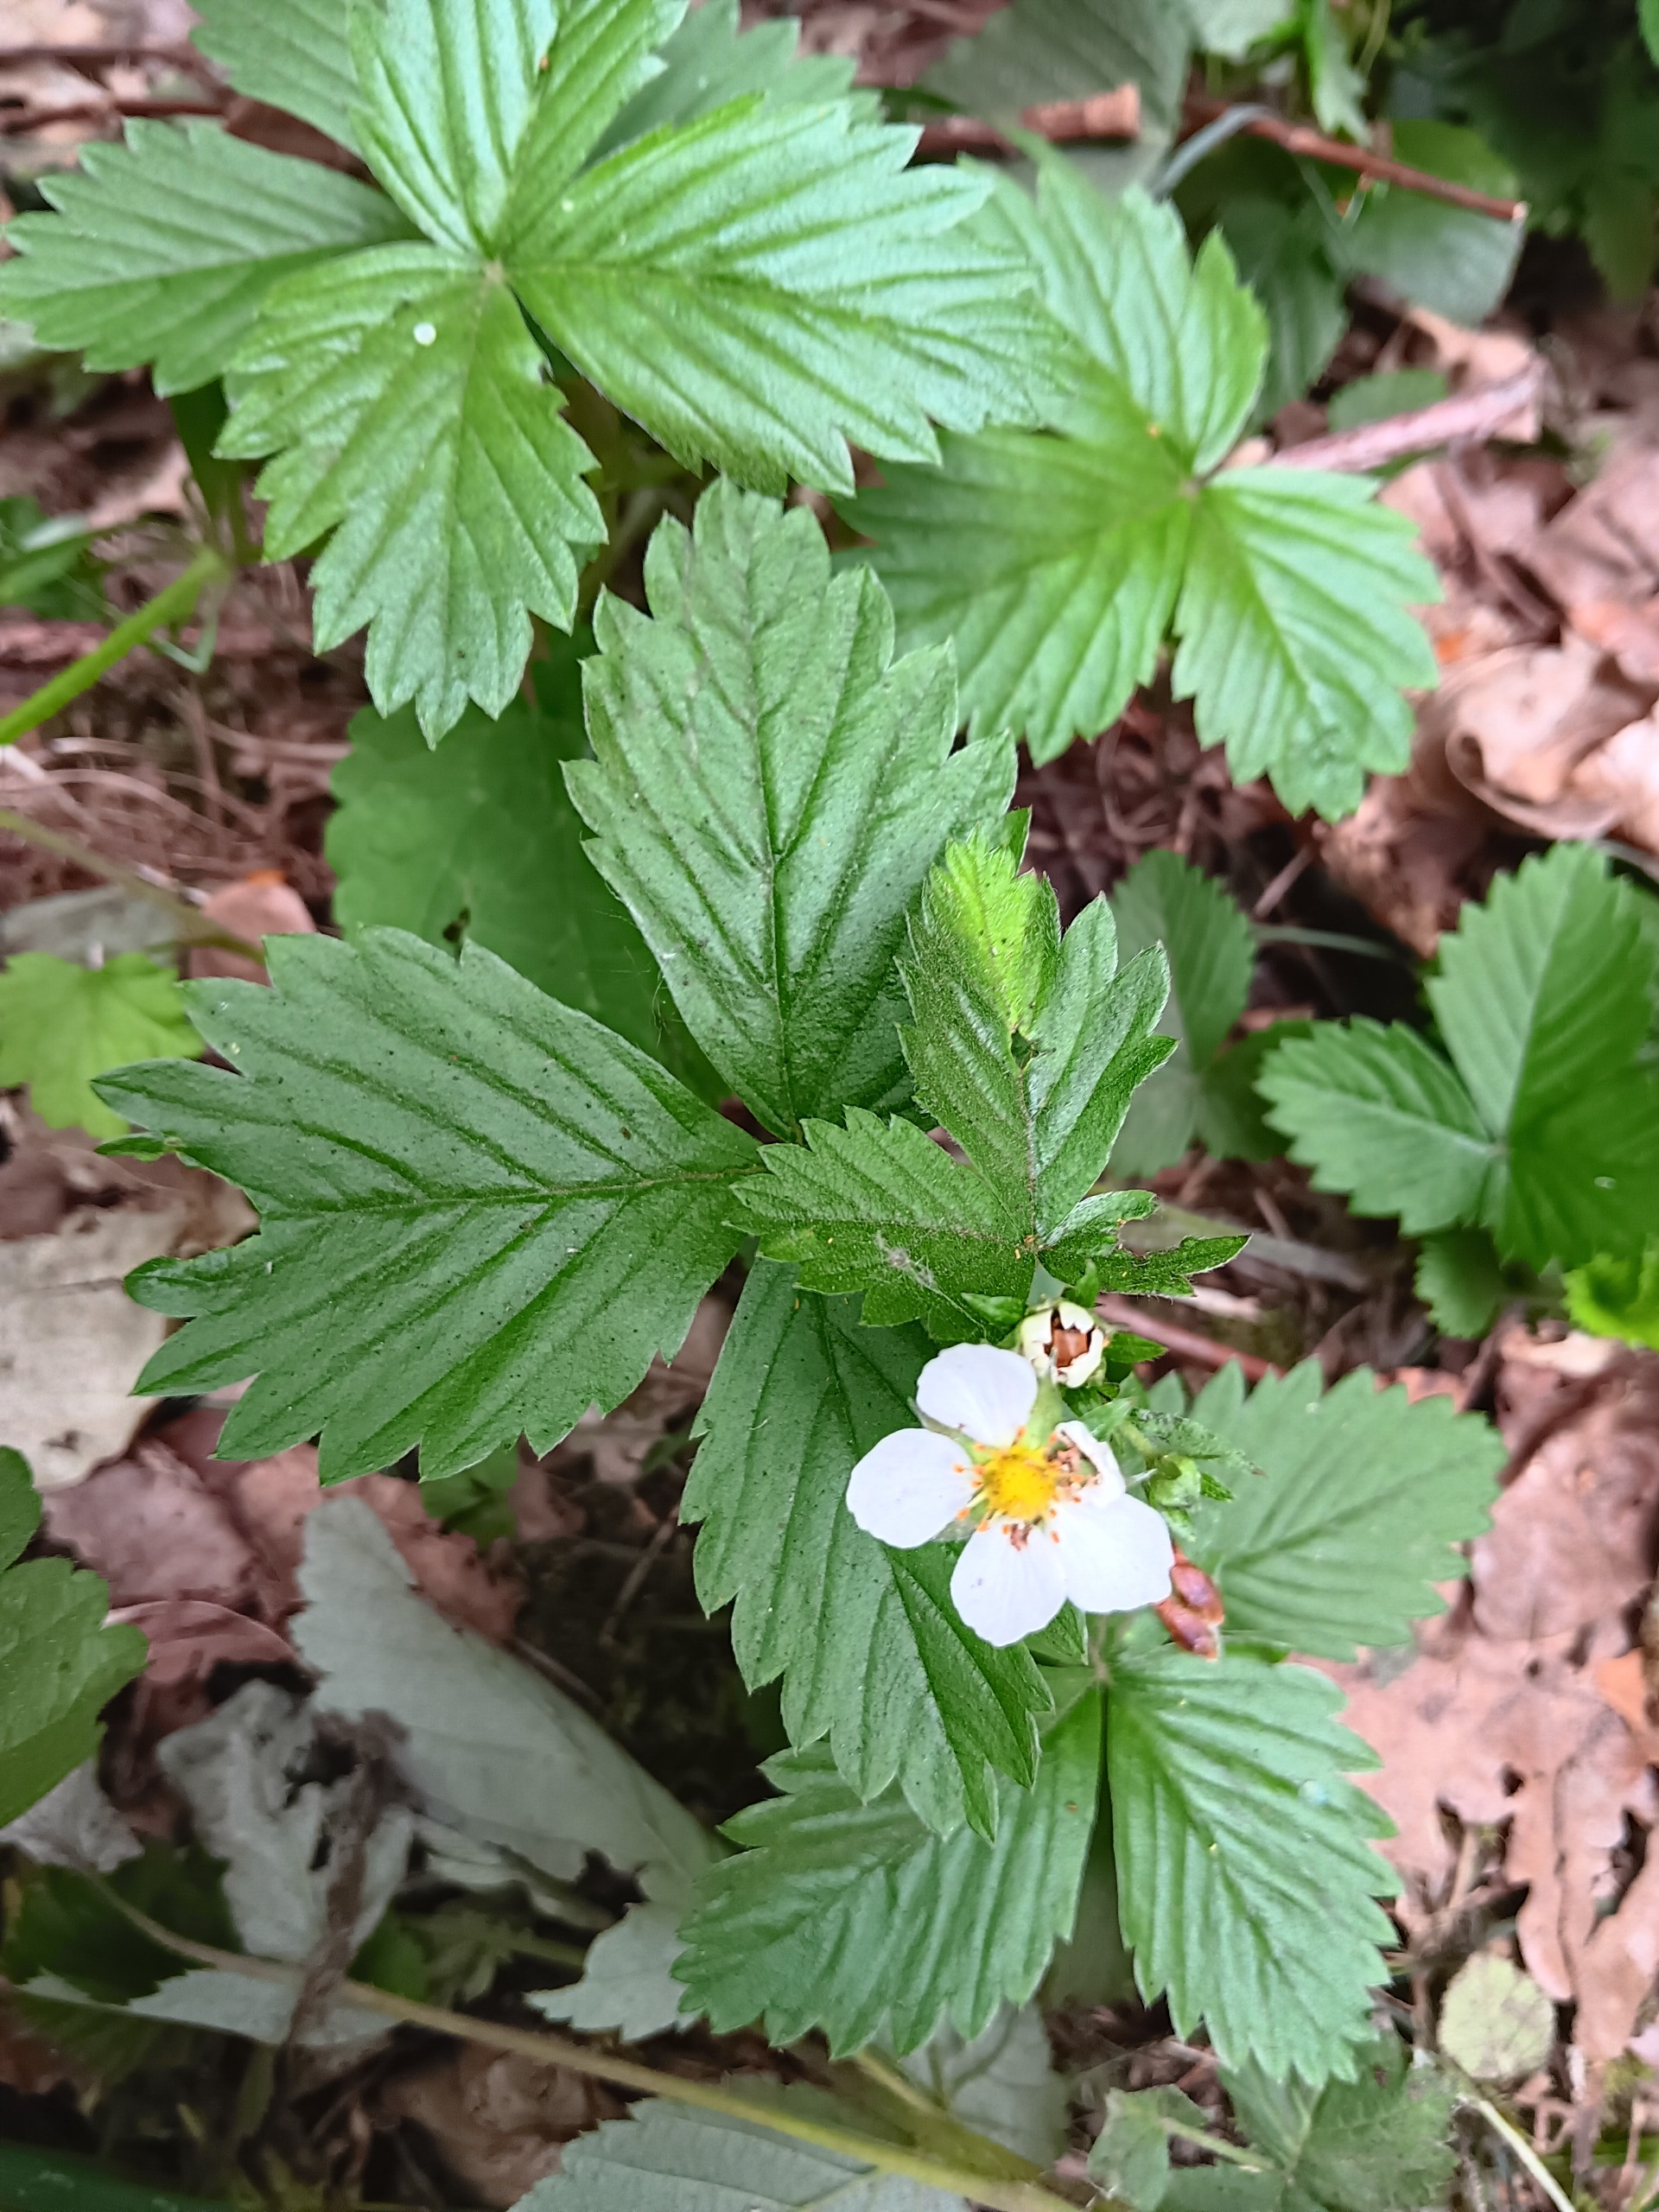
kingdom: Plantae
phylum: Tracheophyta
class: Magnoliopsida
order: Rosales
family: Rosaceae
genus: Fragaria
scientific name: Fragaria vesca
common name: Skov-jordbær
